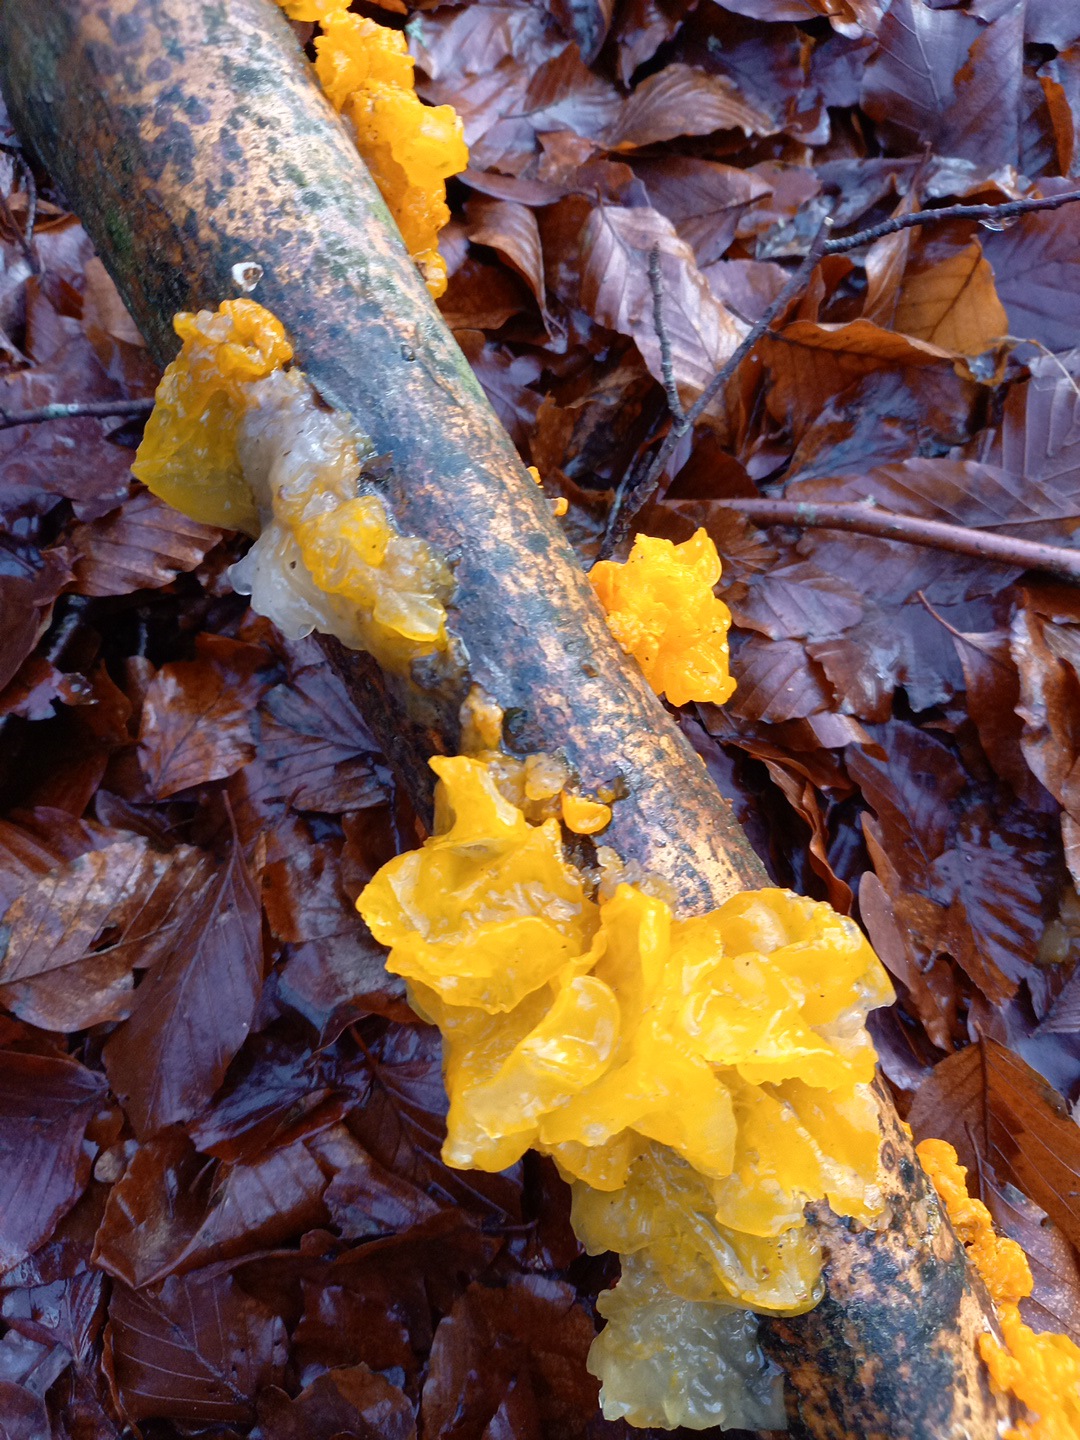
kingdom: Fungi
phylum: Basidiomycota
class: Tremellomycetes
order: Tremellales
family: Tremellaceae
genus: Tremella
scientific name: Tremella mesenterica
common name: gul bævresvamp
